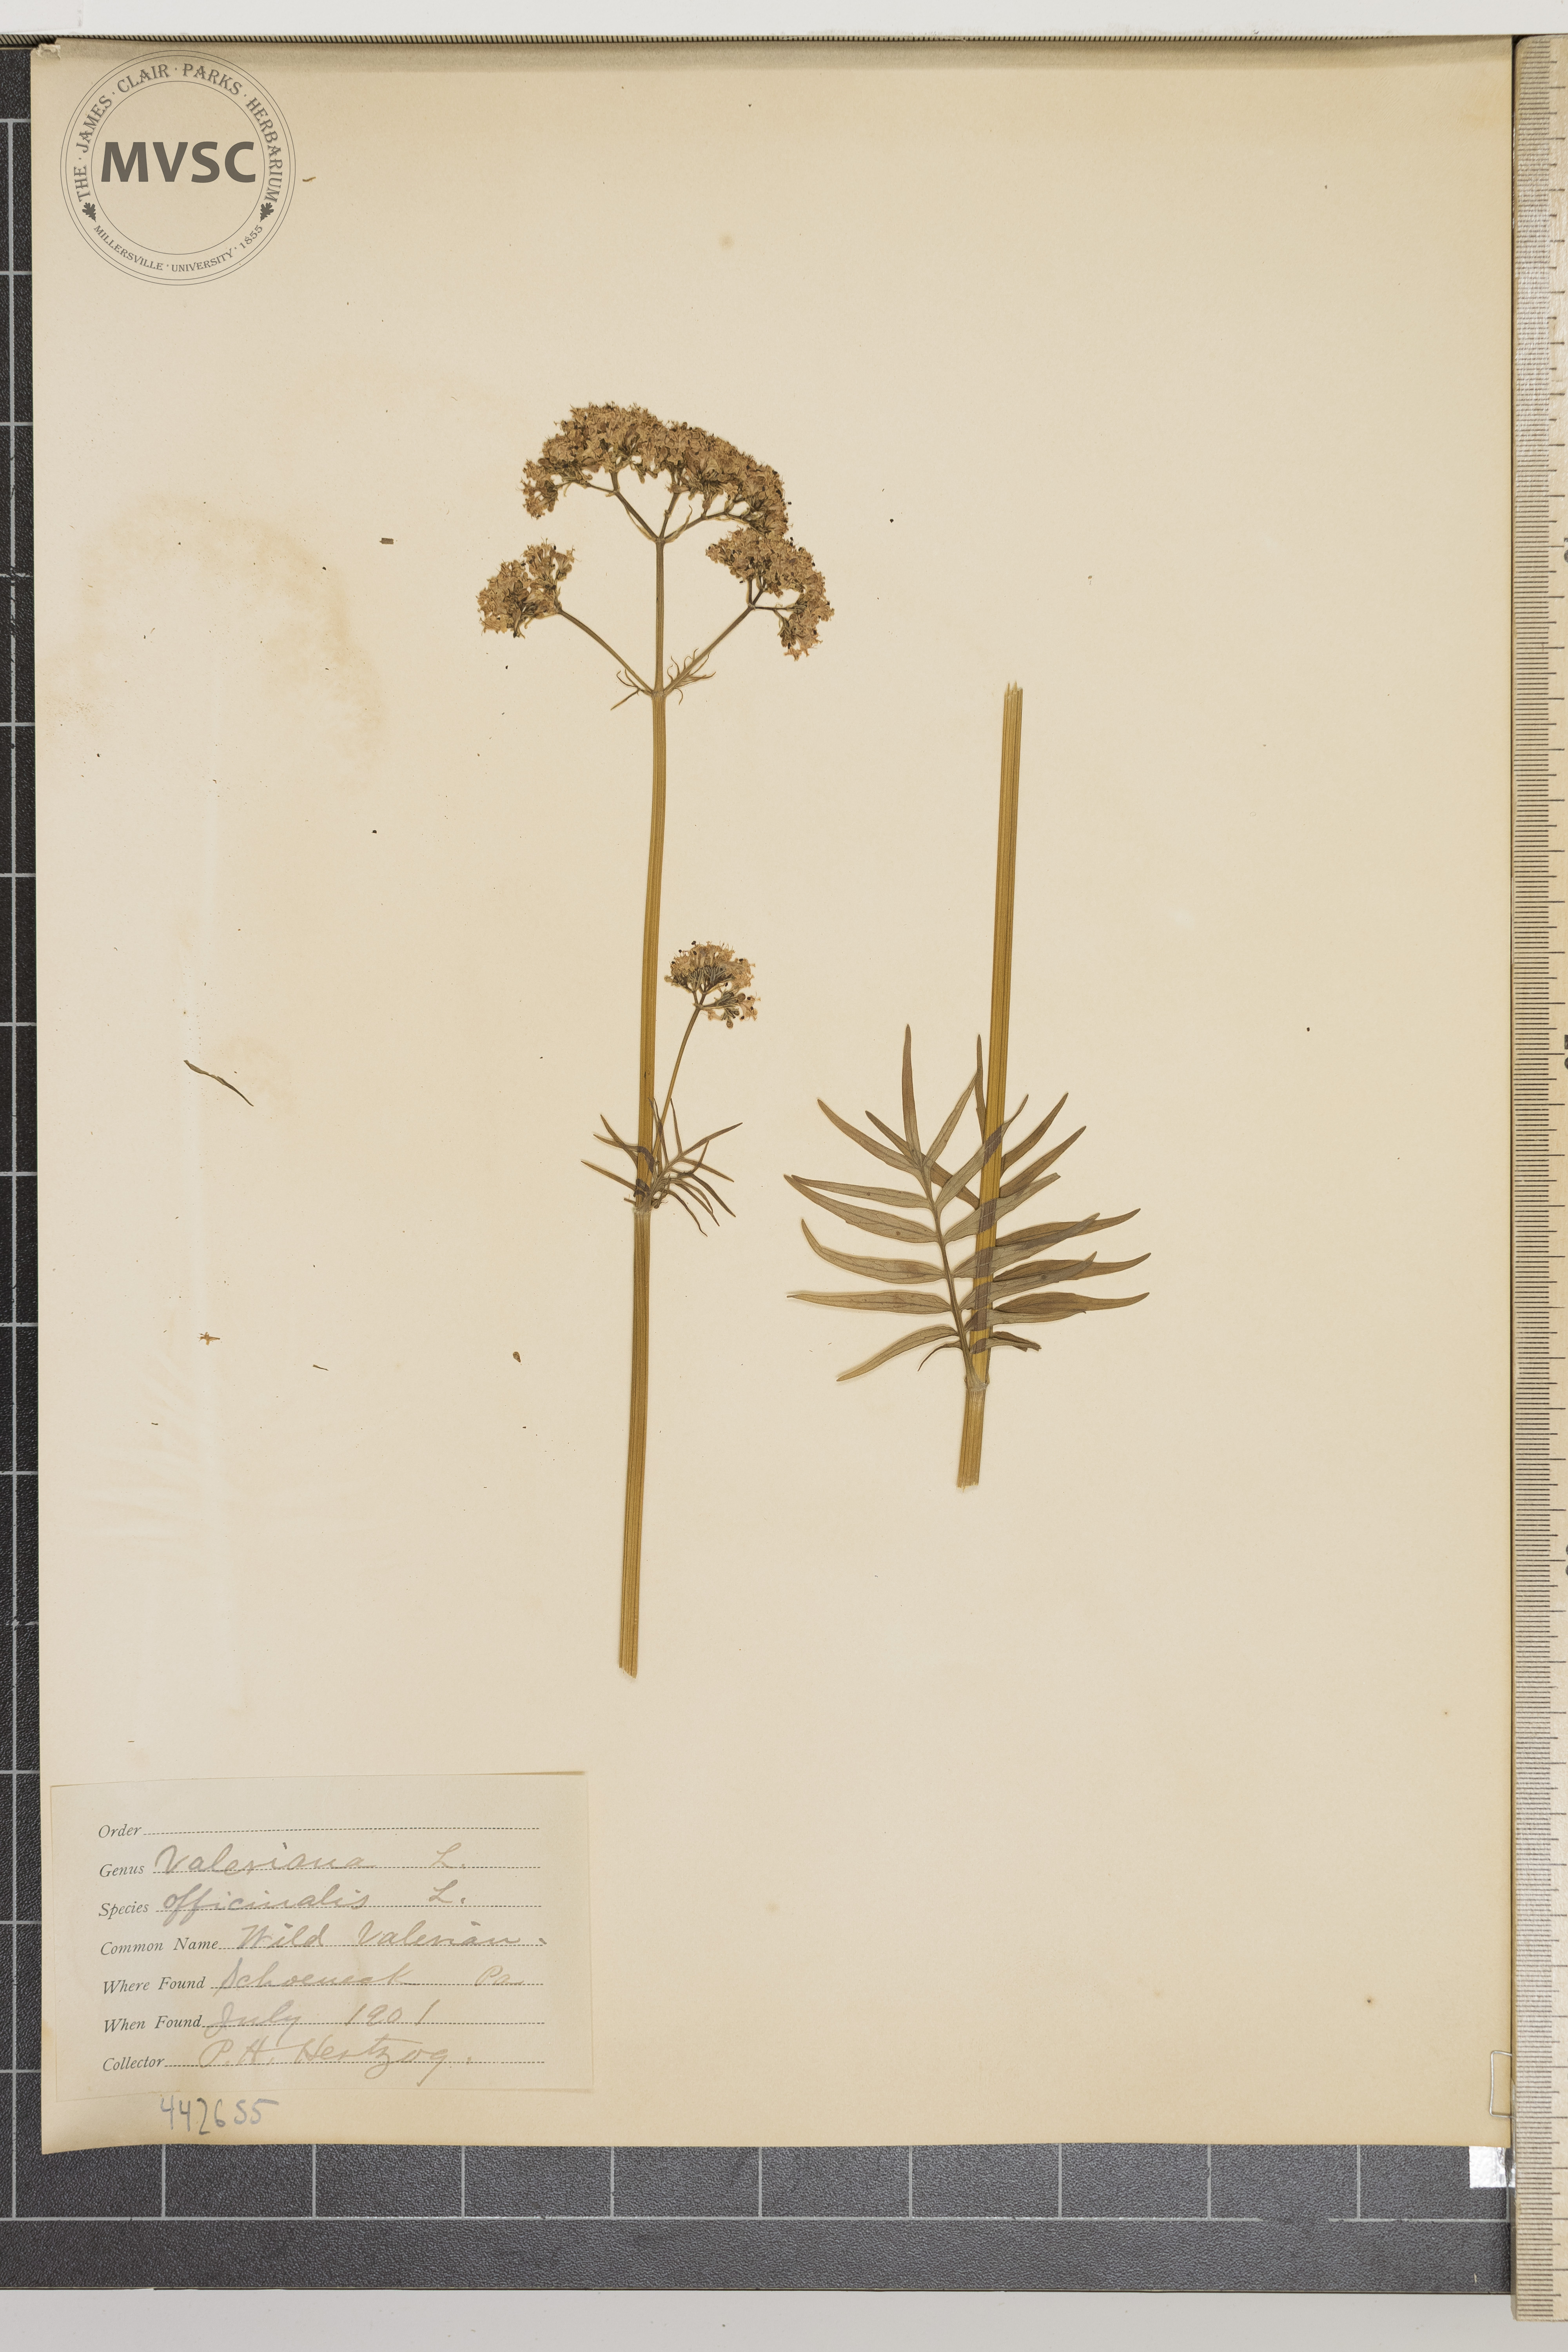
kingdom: Plantae
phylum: Tracheophyta
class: Magnoliopsida
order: Dipsacales
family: Caprifoliaceae
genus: Valeriana
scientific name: Valeriana officinalis
